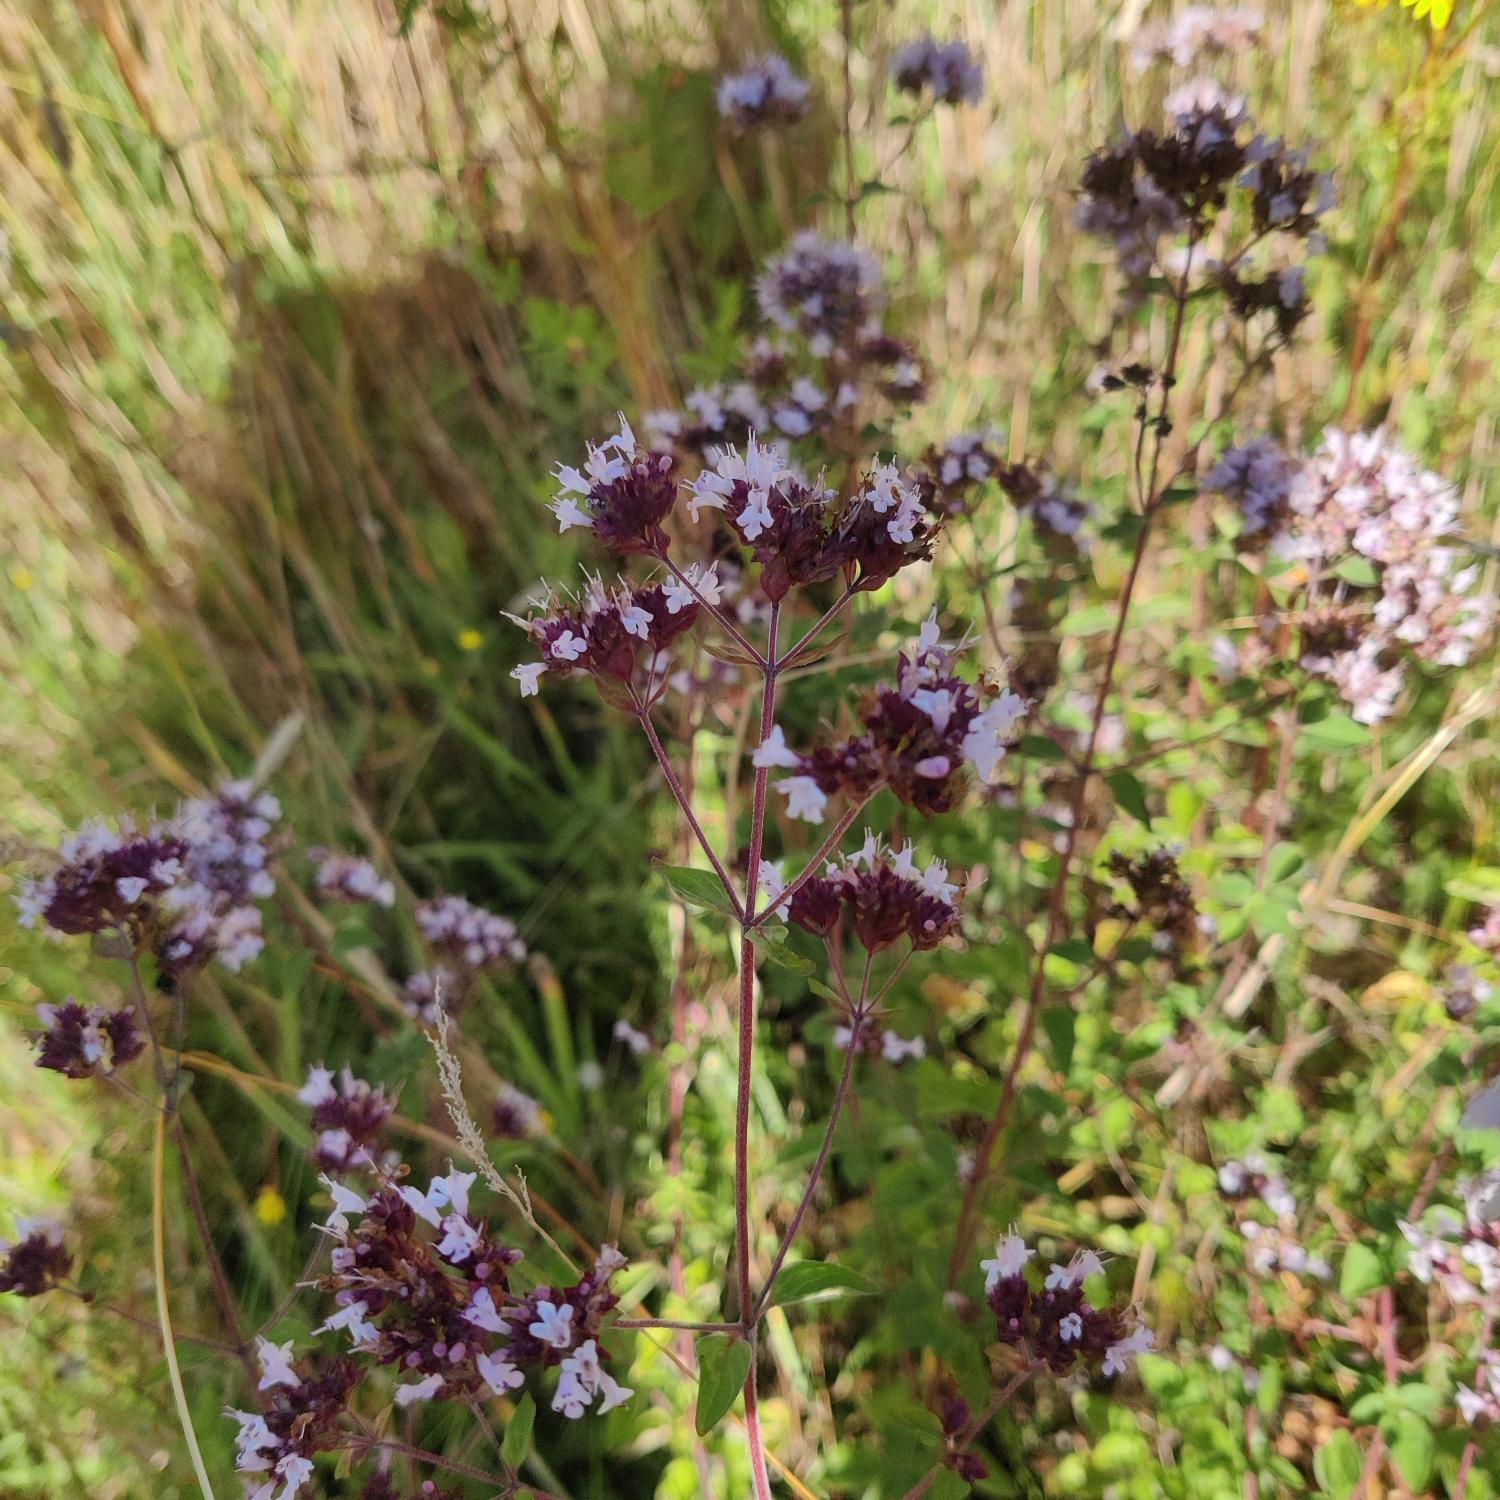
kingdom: Plantae
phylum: Tracheophyta
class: Magnoliopsida
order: Lamiales
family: Lamiaceae
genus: Origanum
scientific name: Origanum vulgare
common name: Merian
